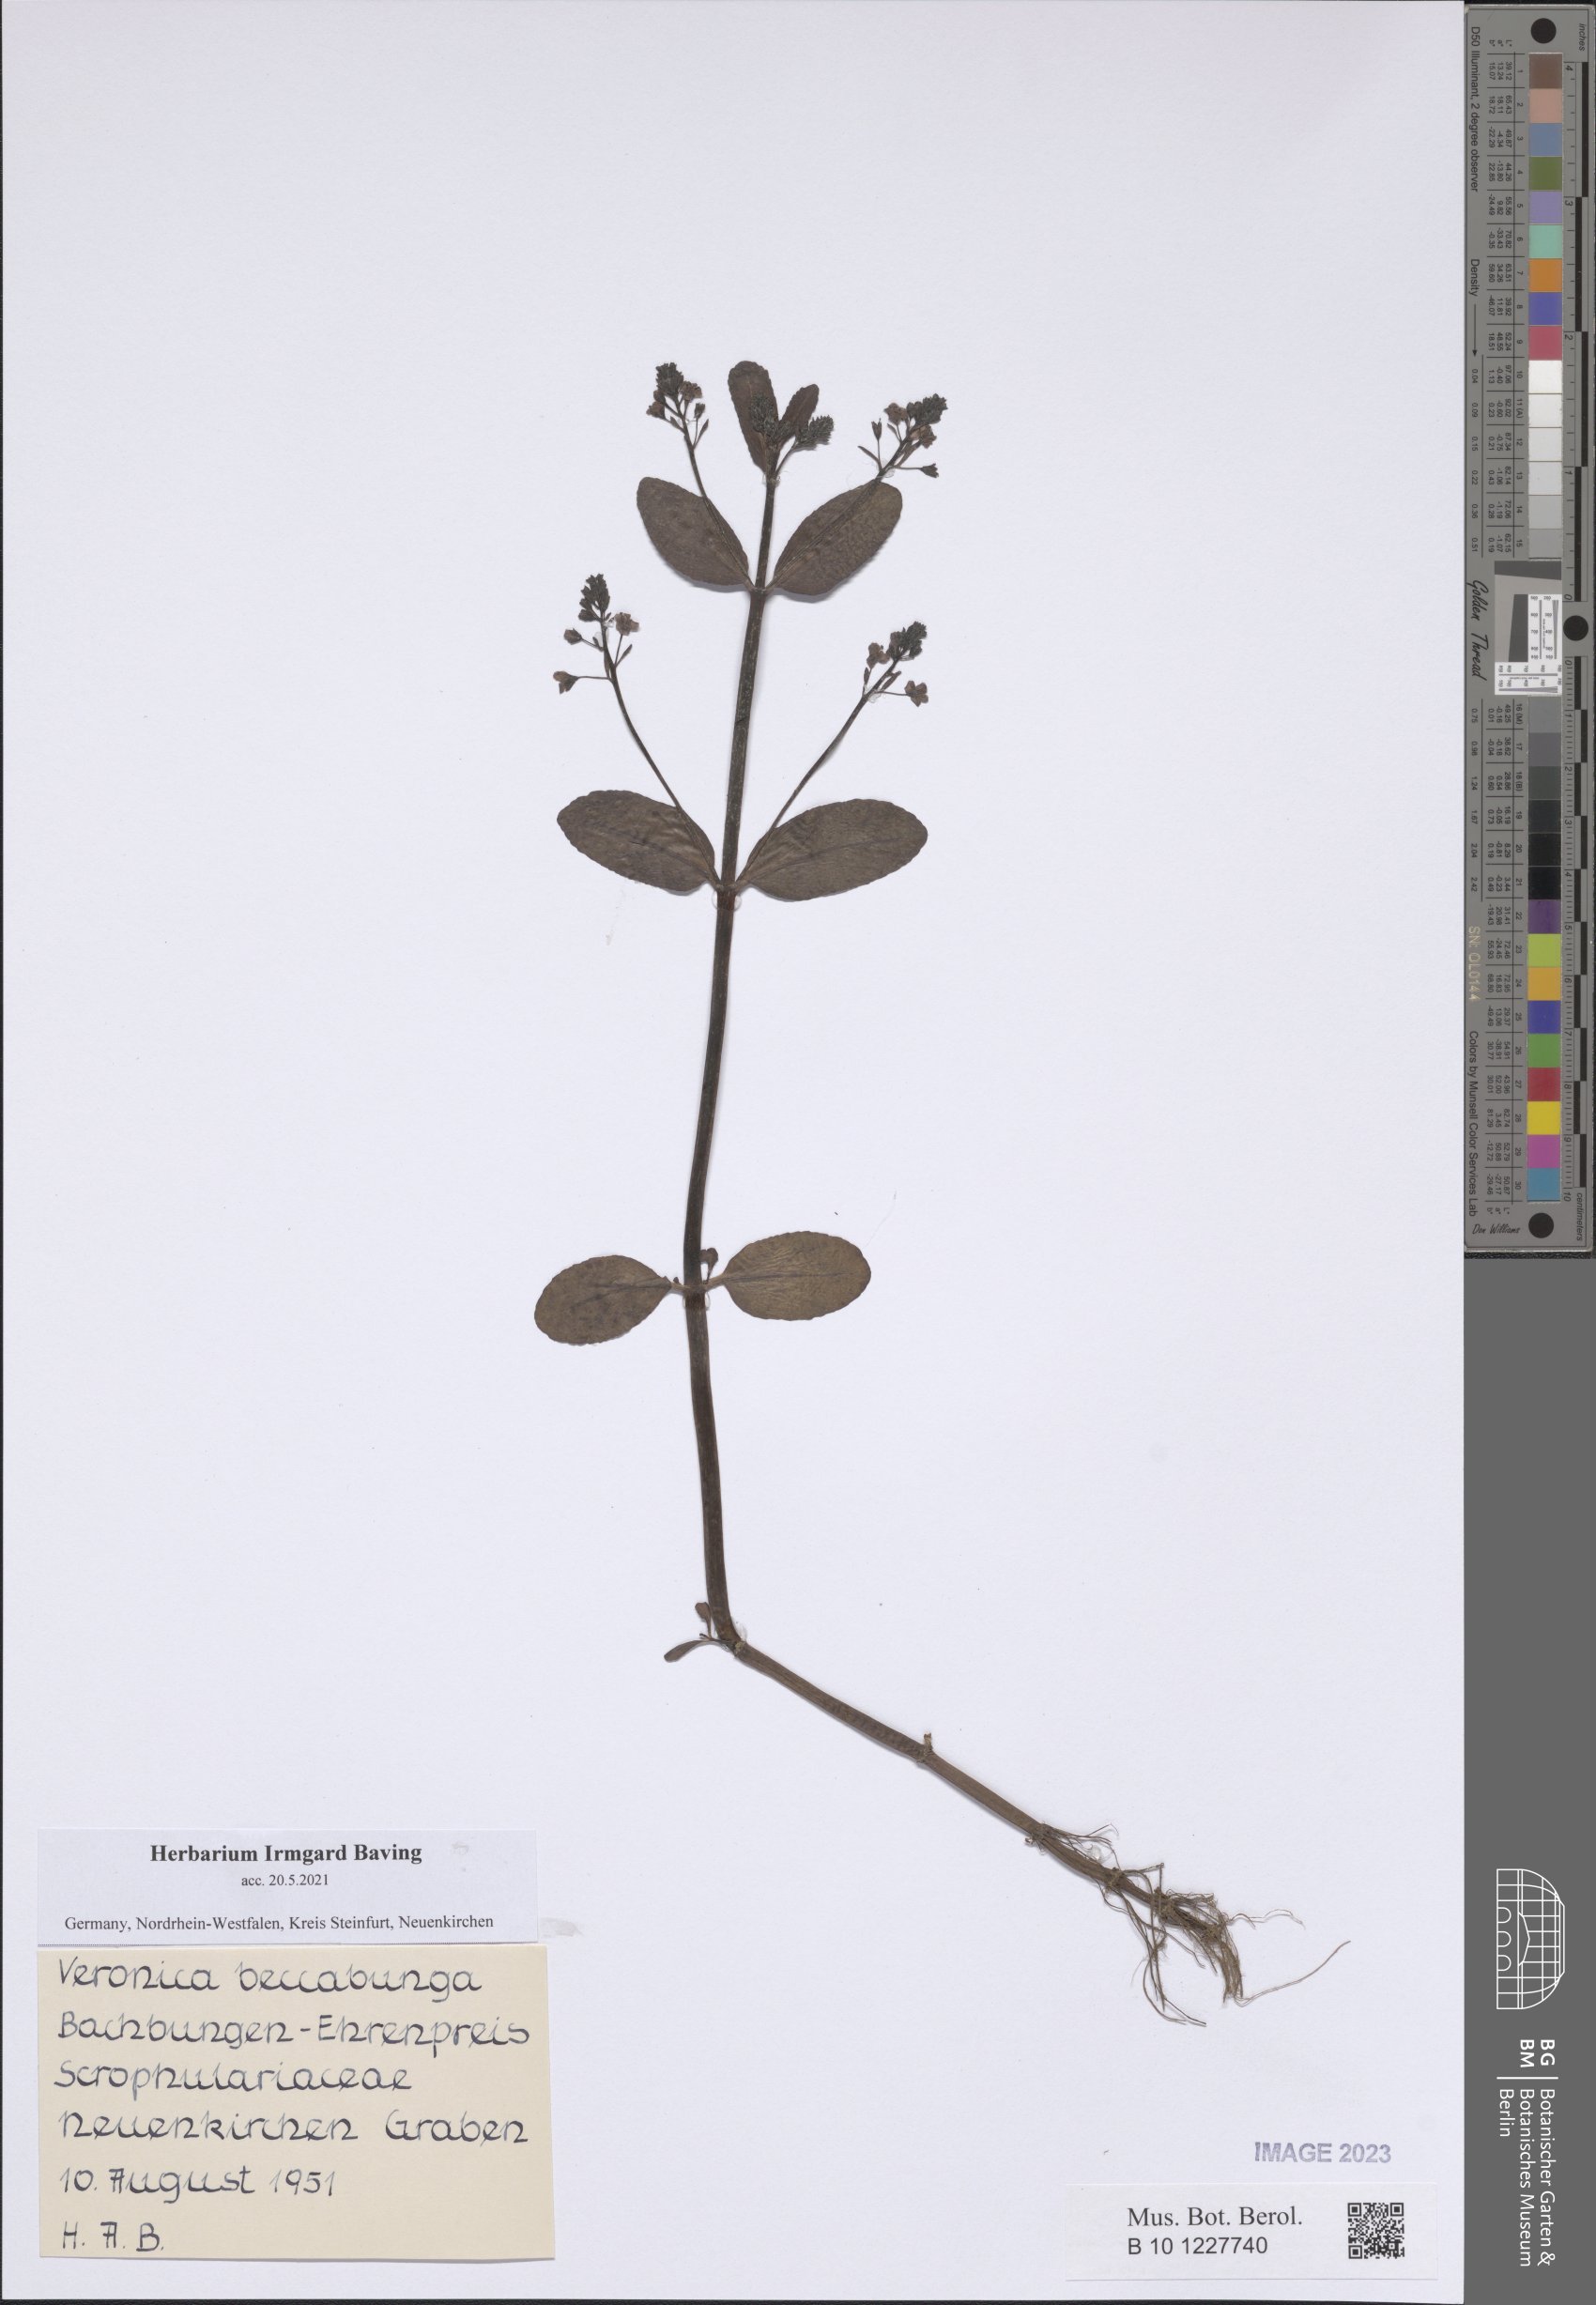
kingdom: Plantae
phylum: Tracheophyta
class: Magnoliopsida
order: Lamiales
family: Plantaginaceae
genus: Veronica
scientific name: Veronica beccabunga
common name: Brooklime
